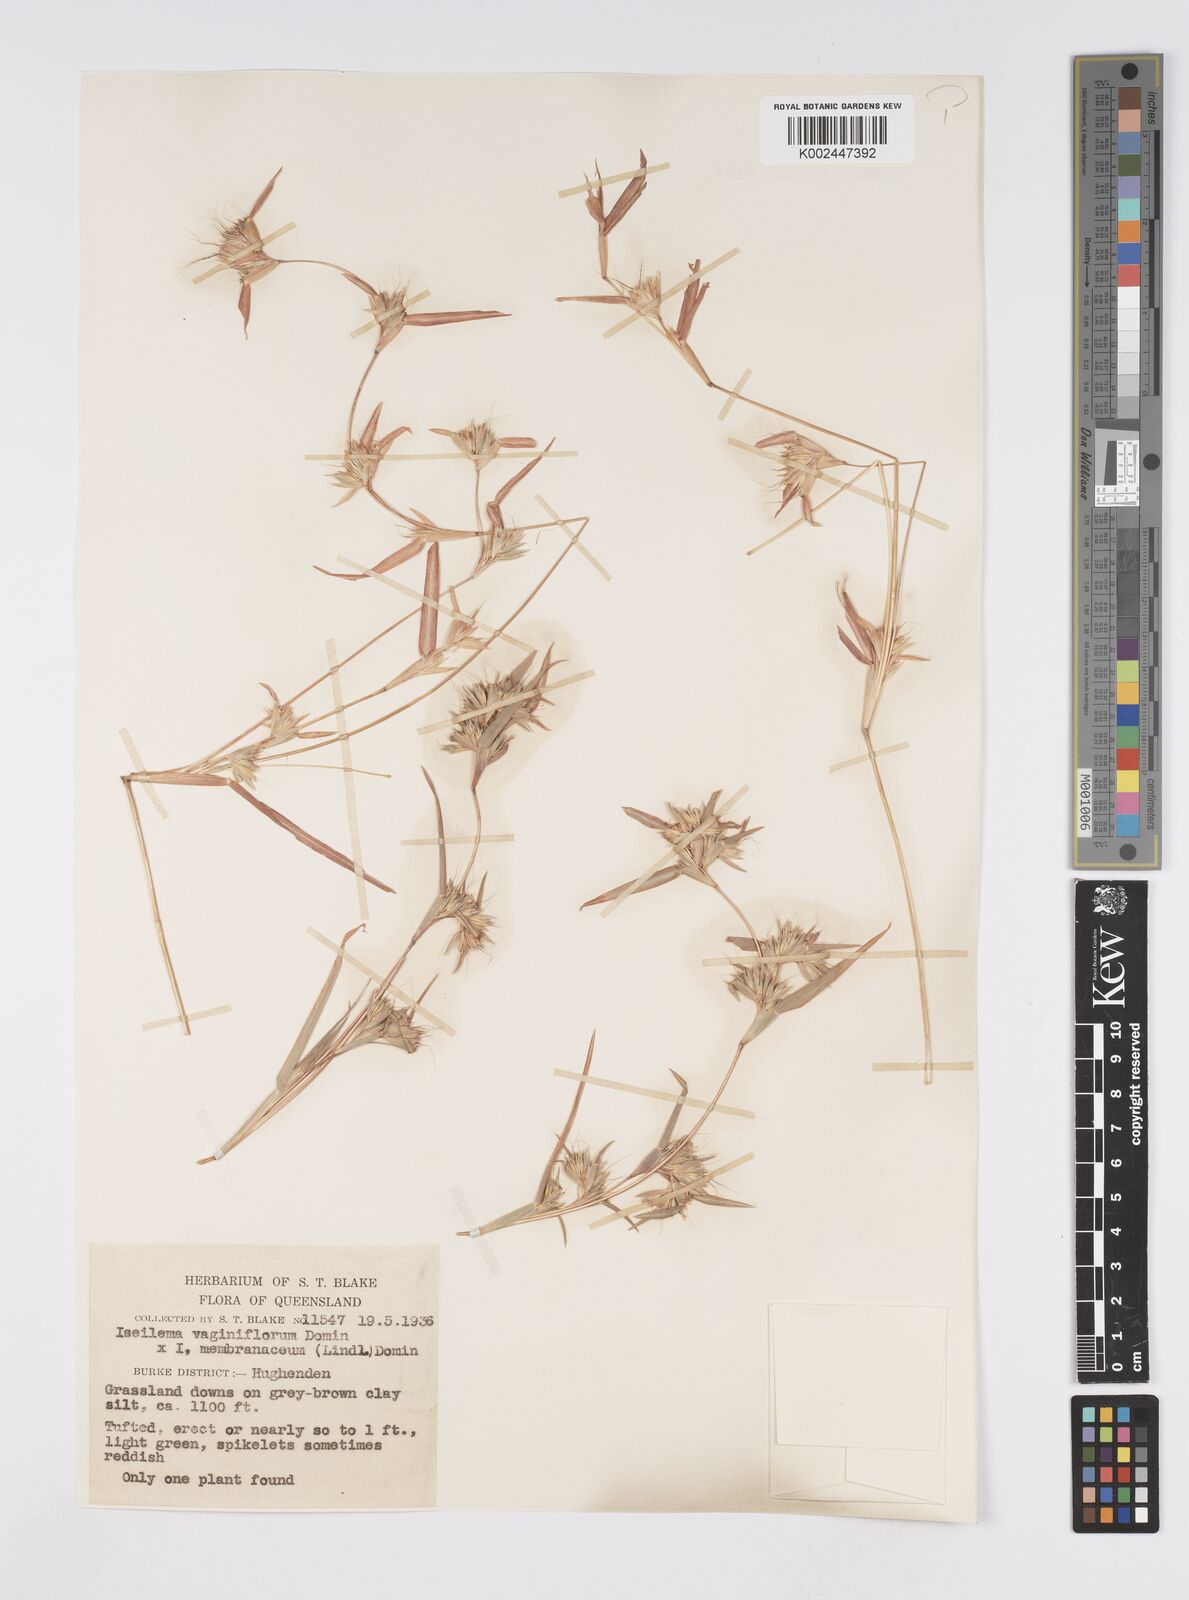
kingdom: Plantae
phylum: Tracheophyta
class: Liliopsida
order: Poales
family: Poaceae
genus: Iseilema
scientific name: Iseilema vaginiflorum
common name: Red flinders grass
